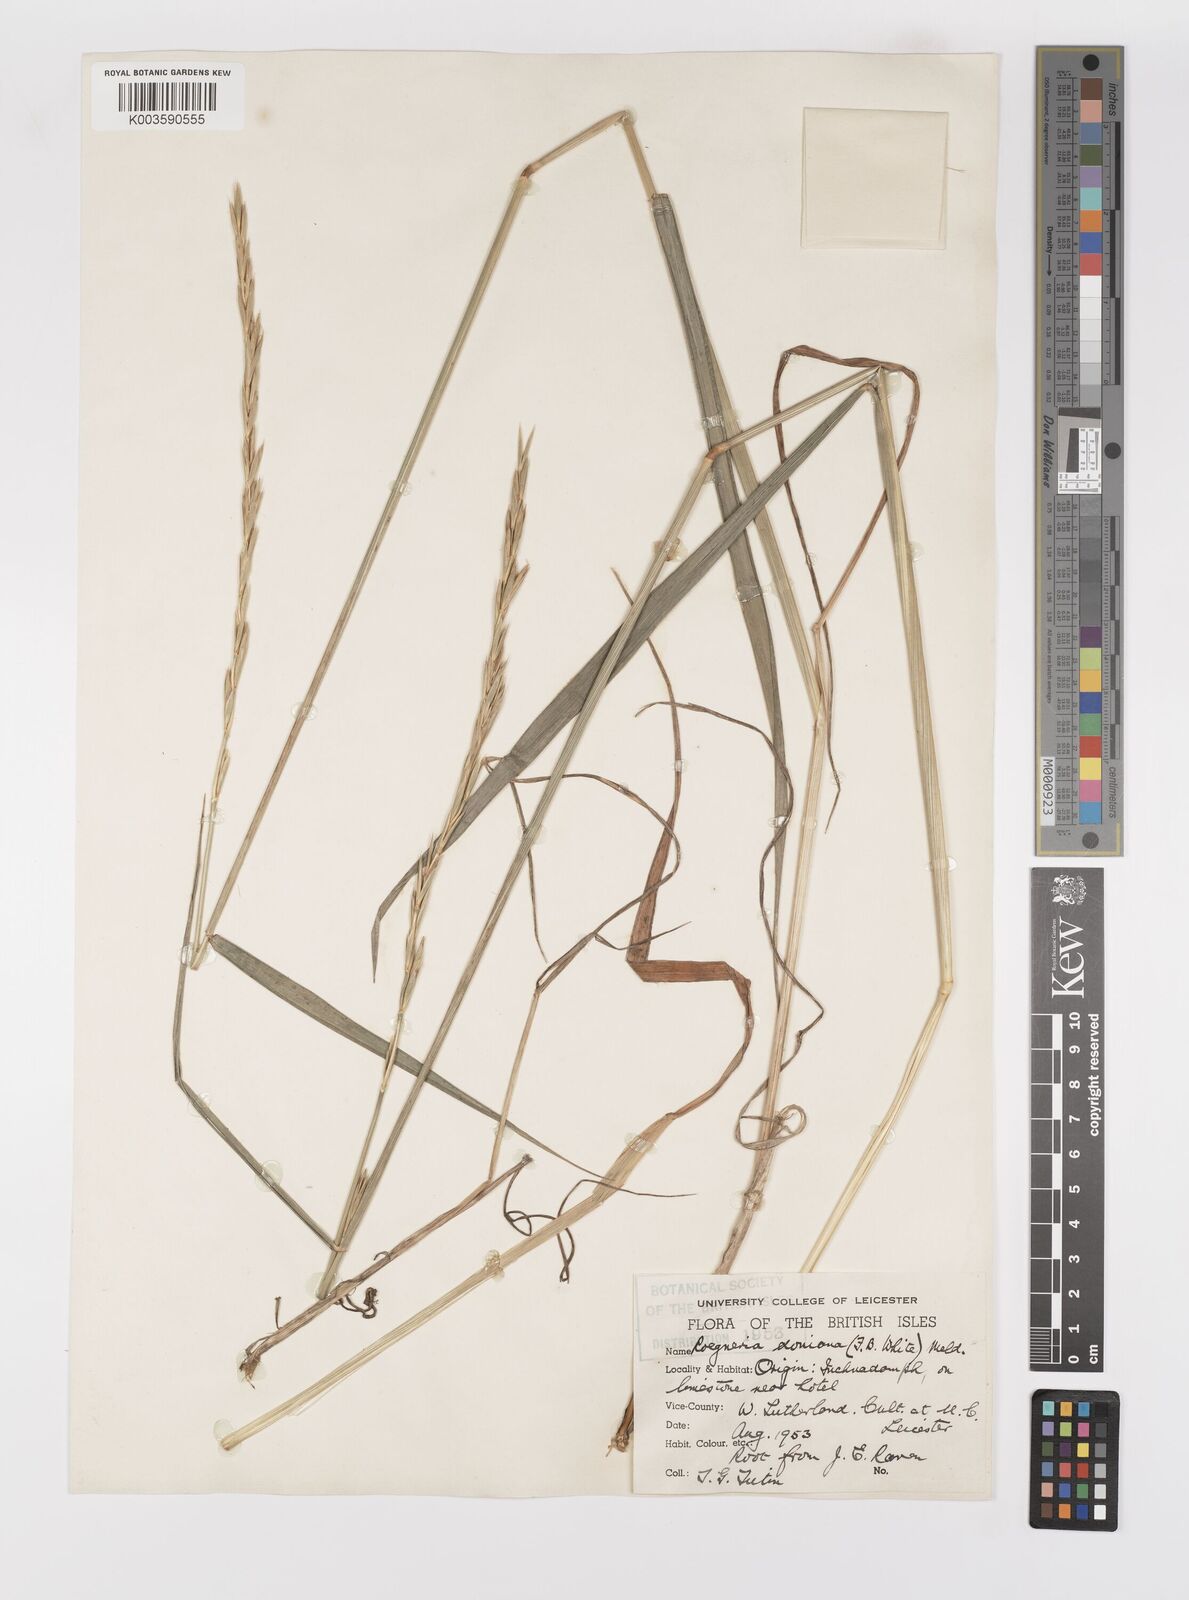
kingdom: Plantae
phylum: Tracheophyta
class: Liliopsida
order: Poales
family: Poaceae
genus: Elymus
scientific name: Elymus caninus
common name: Bearded couch
